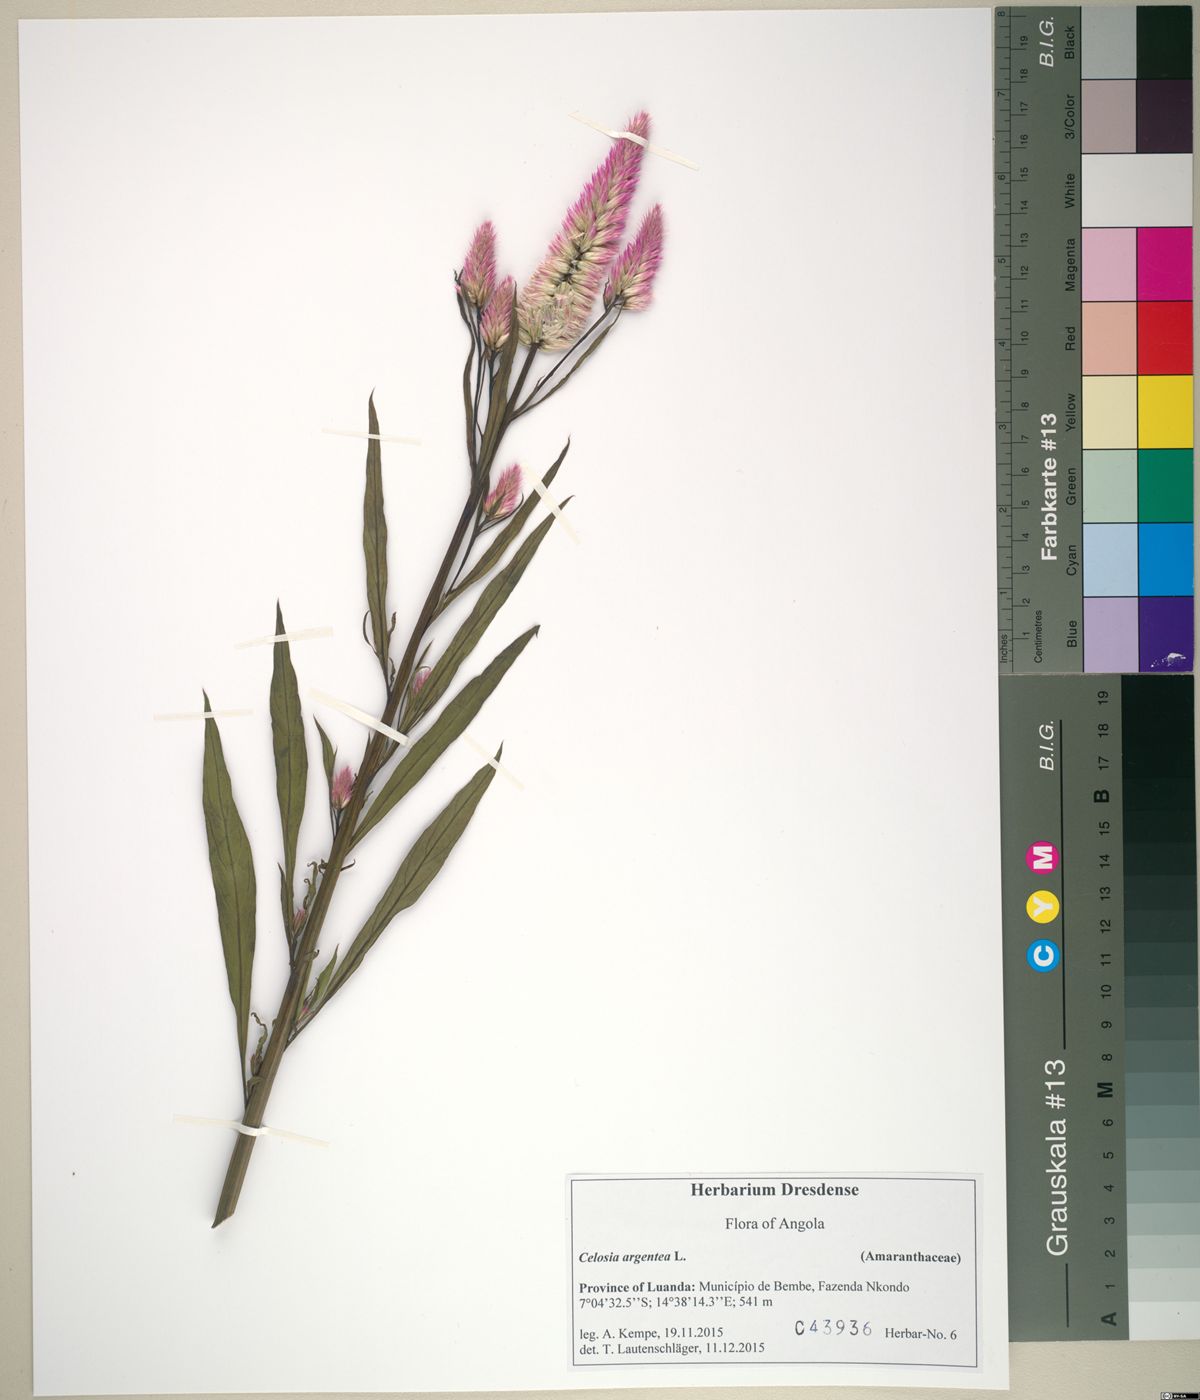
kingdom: Plantae
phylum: Tracheophyta
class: Magnoliopsida
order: Caryophyllales
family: Amaranthaceae
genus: Celosia
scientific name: Celosia argentea
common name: Feather cockscomb
